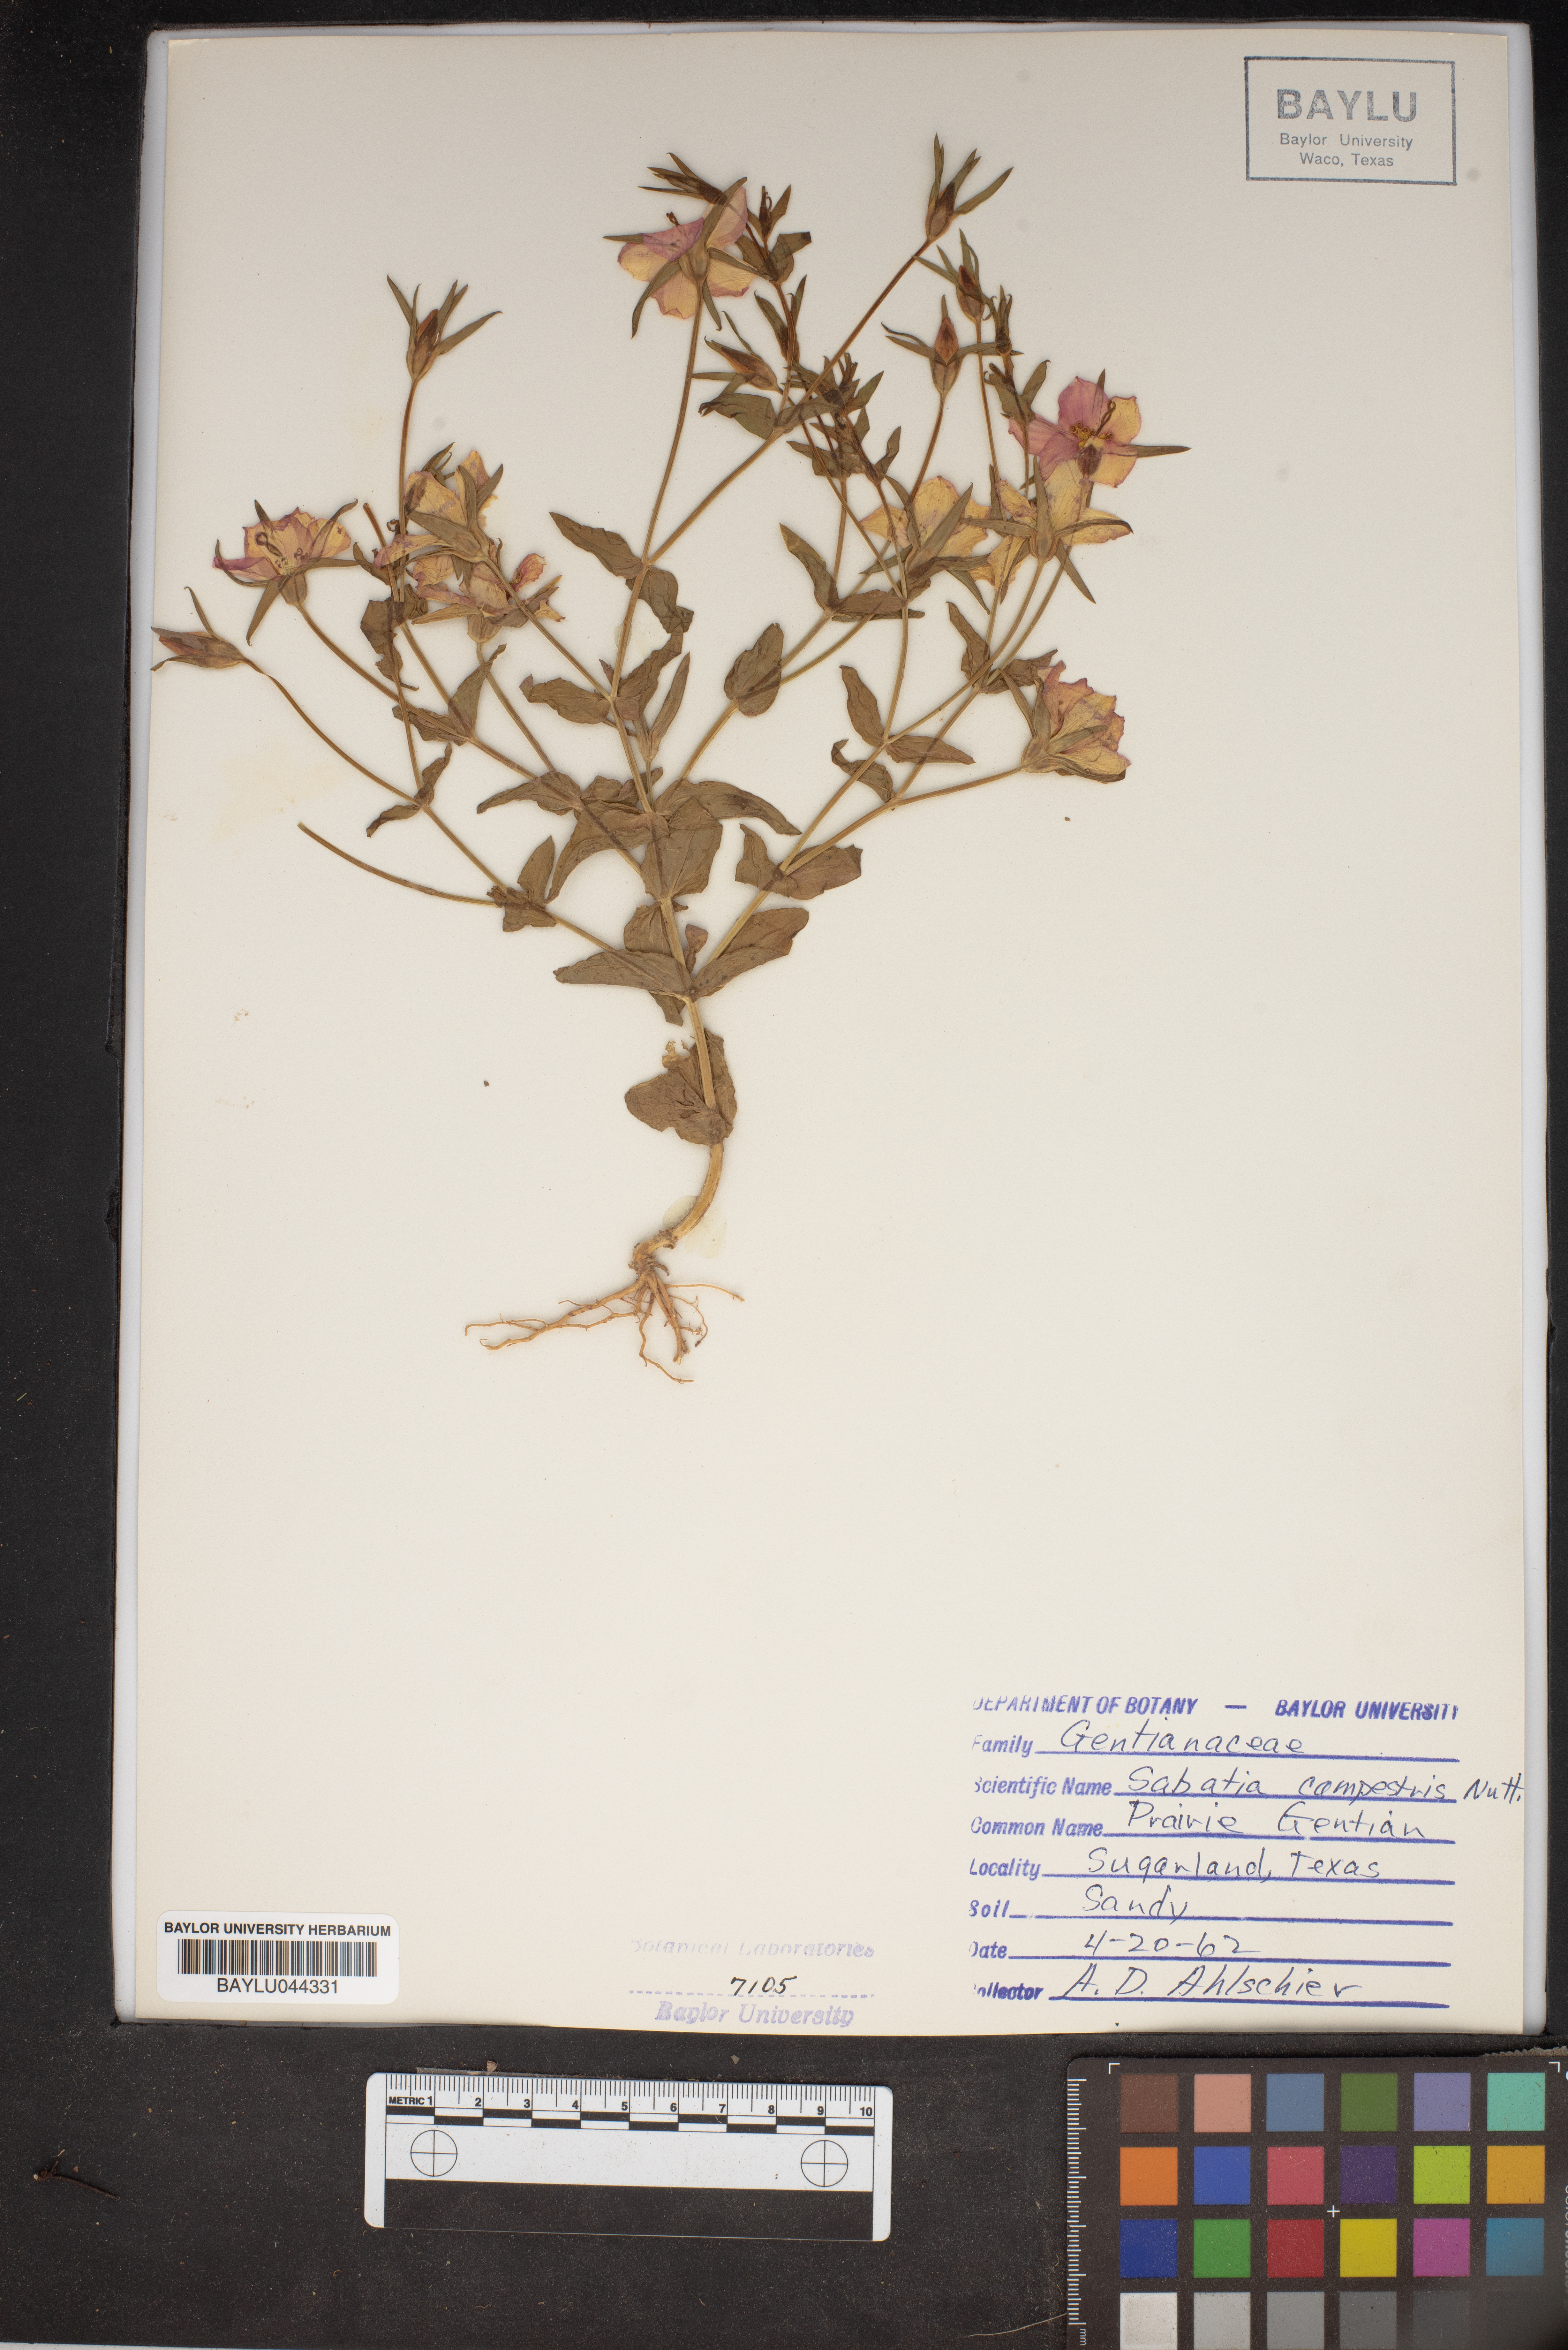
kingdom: Plantae
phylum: Tracheophyta
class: Magnoliopsida
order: Gentianales
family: Gentianaceae
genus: Sabatia
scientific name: Sabatia campestris
